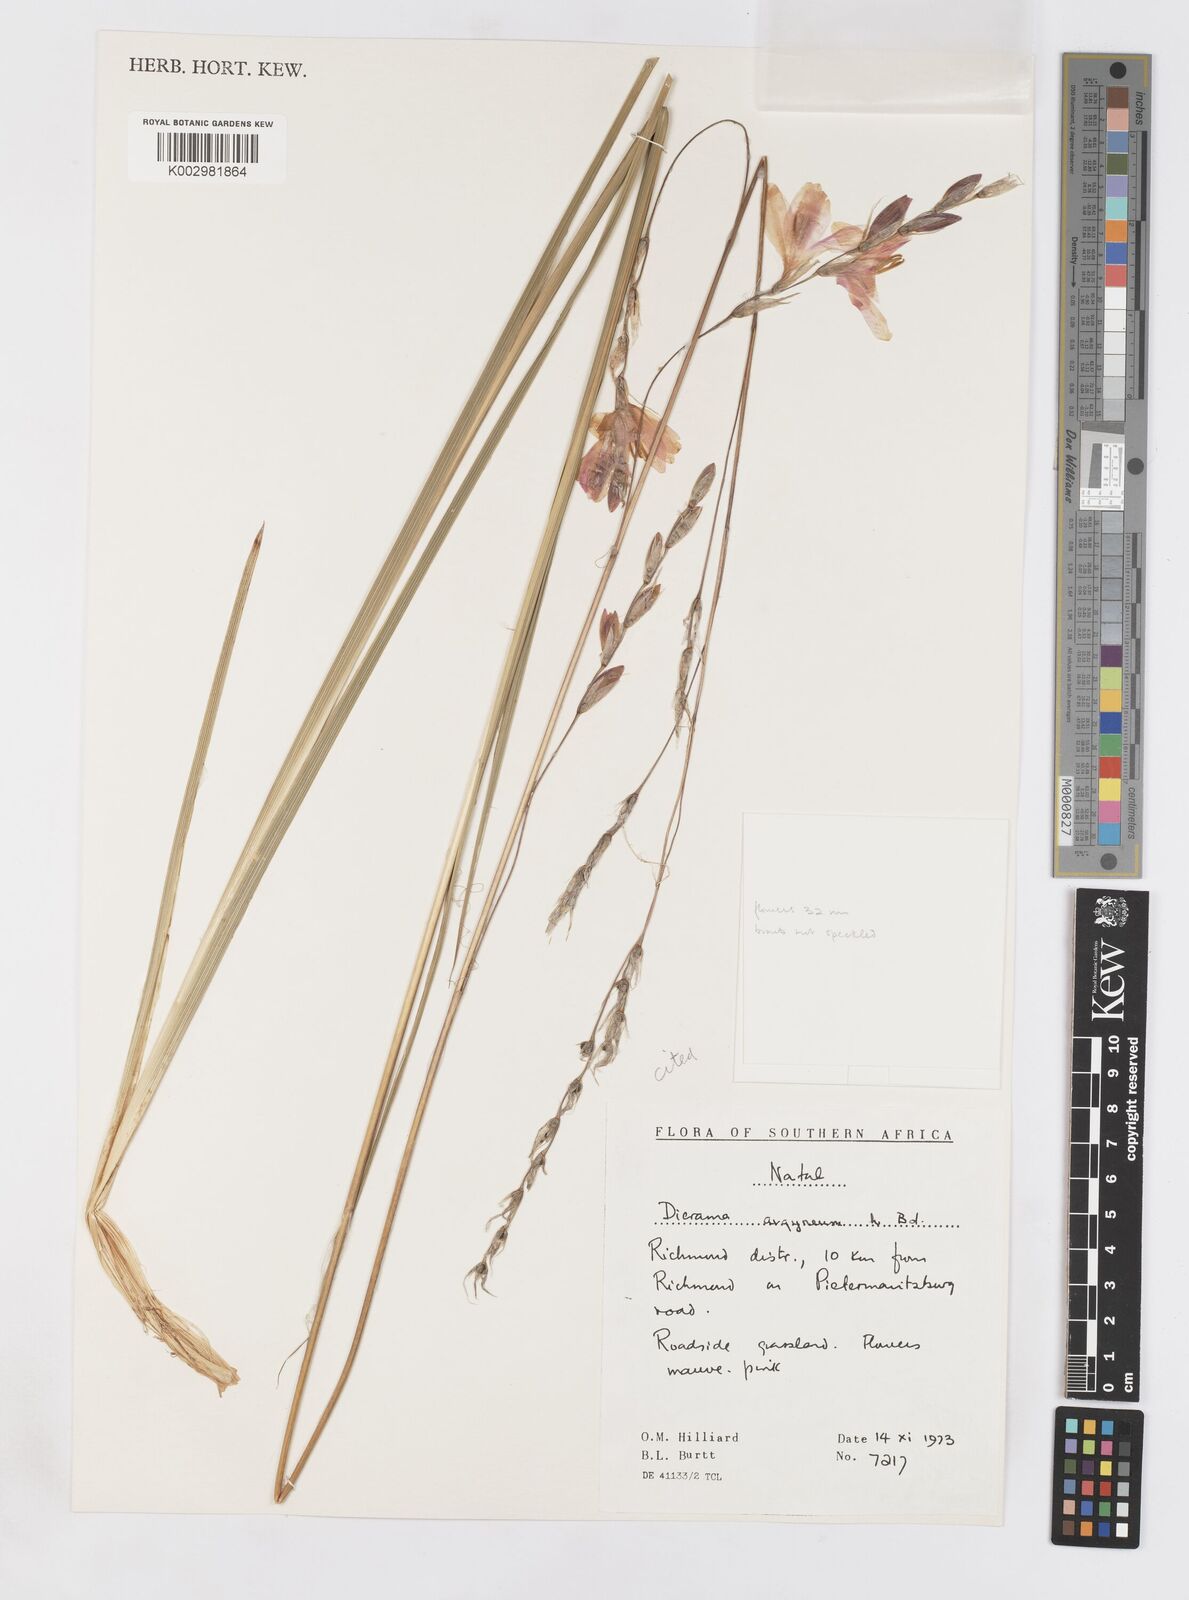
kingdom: Plantae
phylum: Tracheophyta
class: Liliopsida
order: Asparagales
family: Iridaceae
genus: Dierama
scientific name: Dierama argyreum
